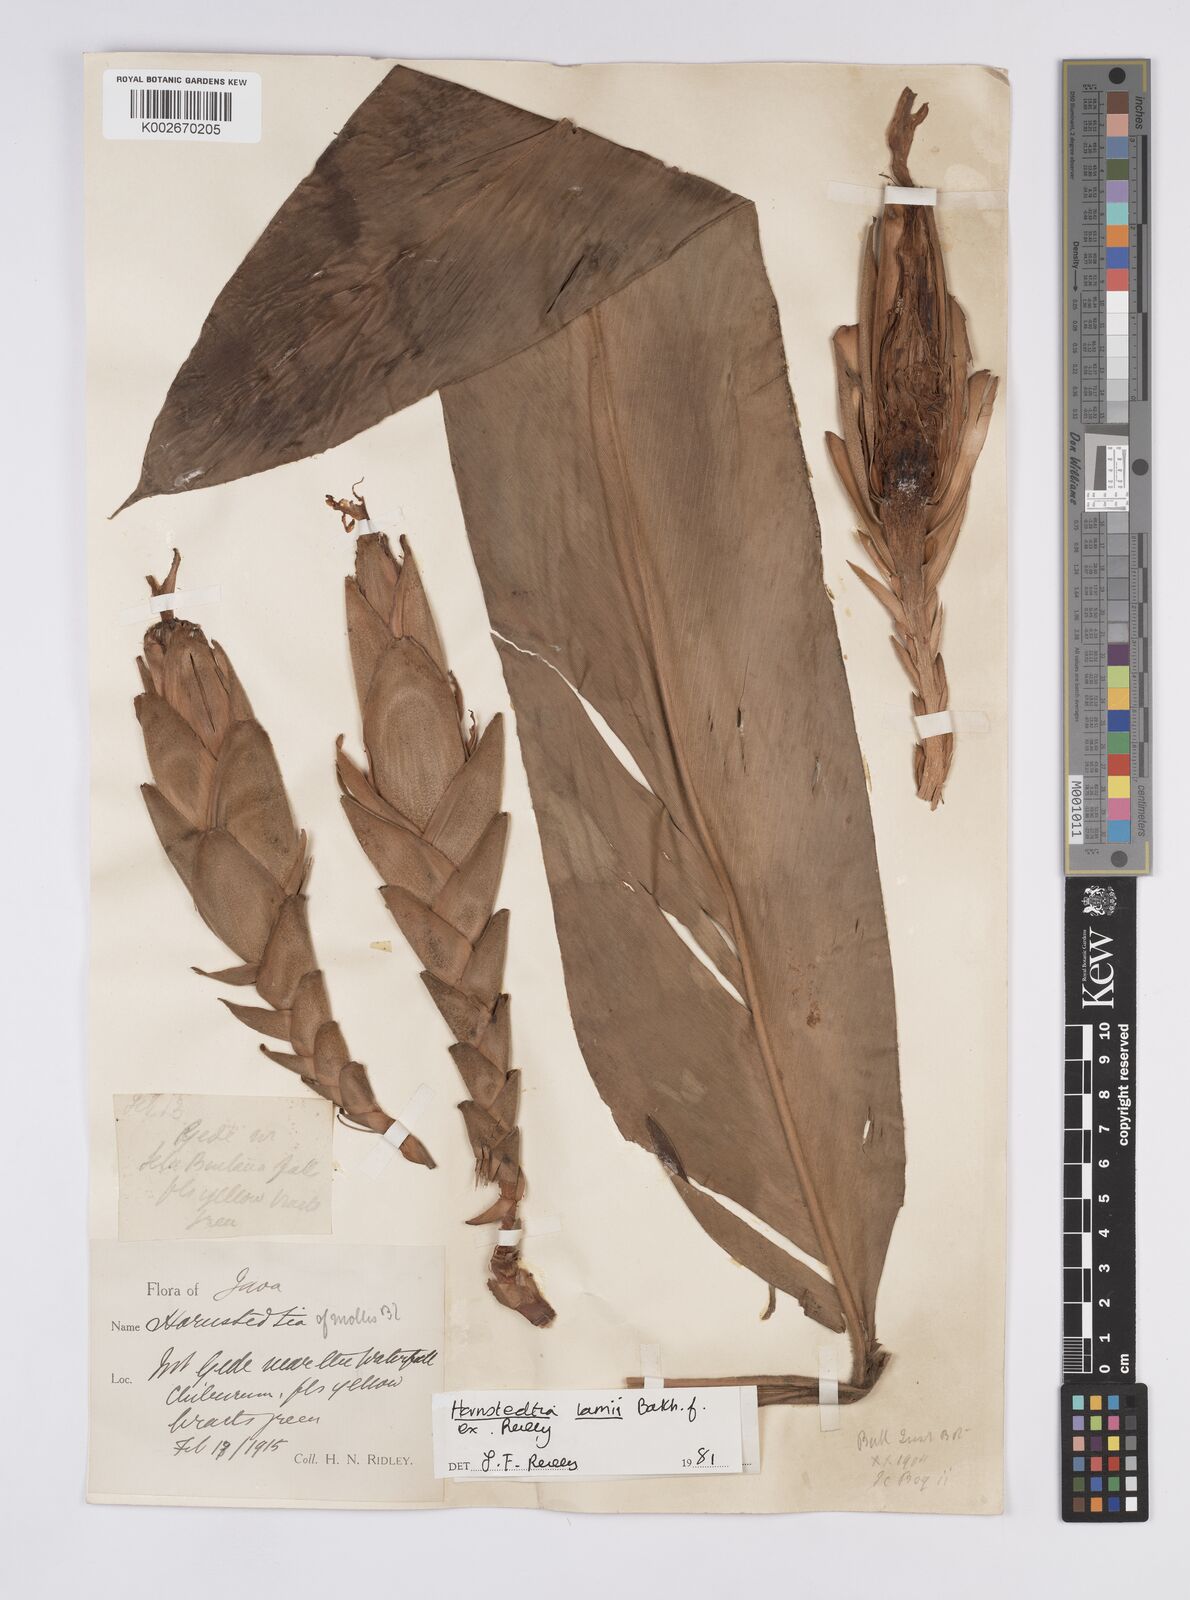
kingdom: Plantae
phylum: Tracheophyta
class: Liliopsida
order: Zingiberales
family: Zingiberaceae
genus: Hornstedtia
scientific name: Hornstedtia
